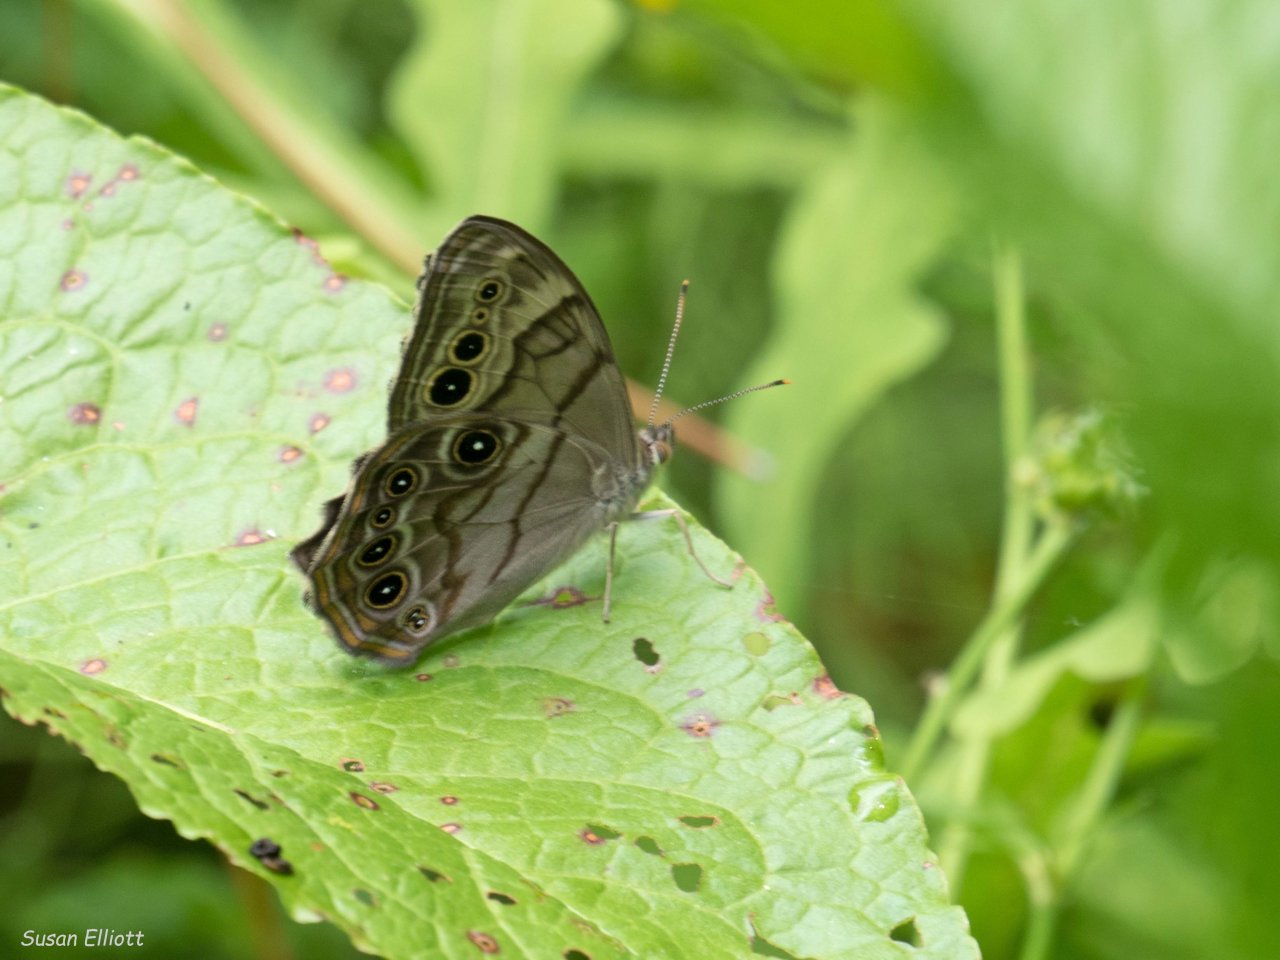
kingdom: Animalia
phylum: Arthropoda
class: Insecta
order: Lepidoptera
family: Nymphalidae
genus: Lethe
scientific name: Lethe anthedon
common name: Northern Pearly-Eye
